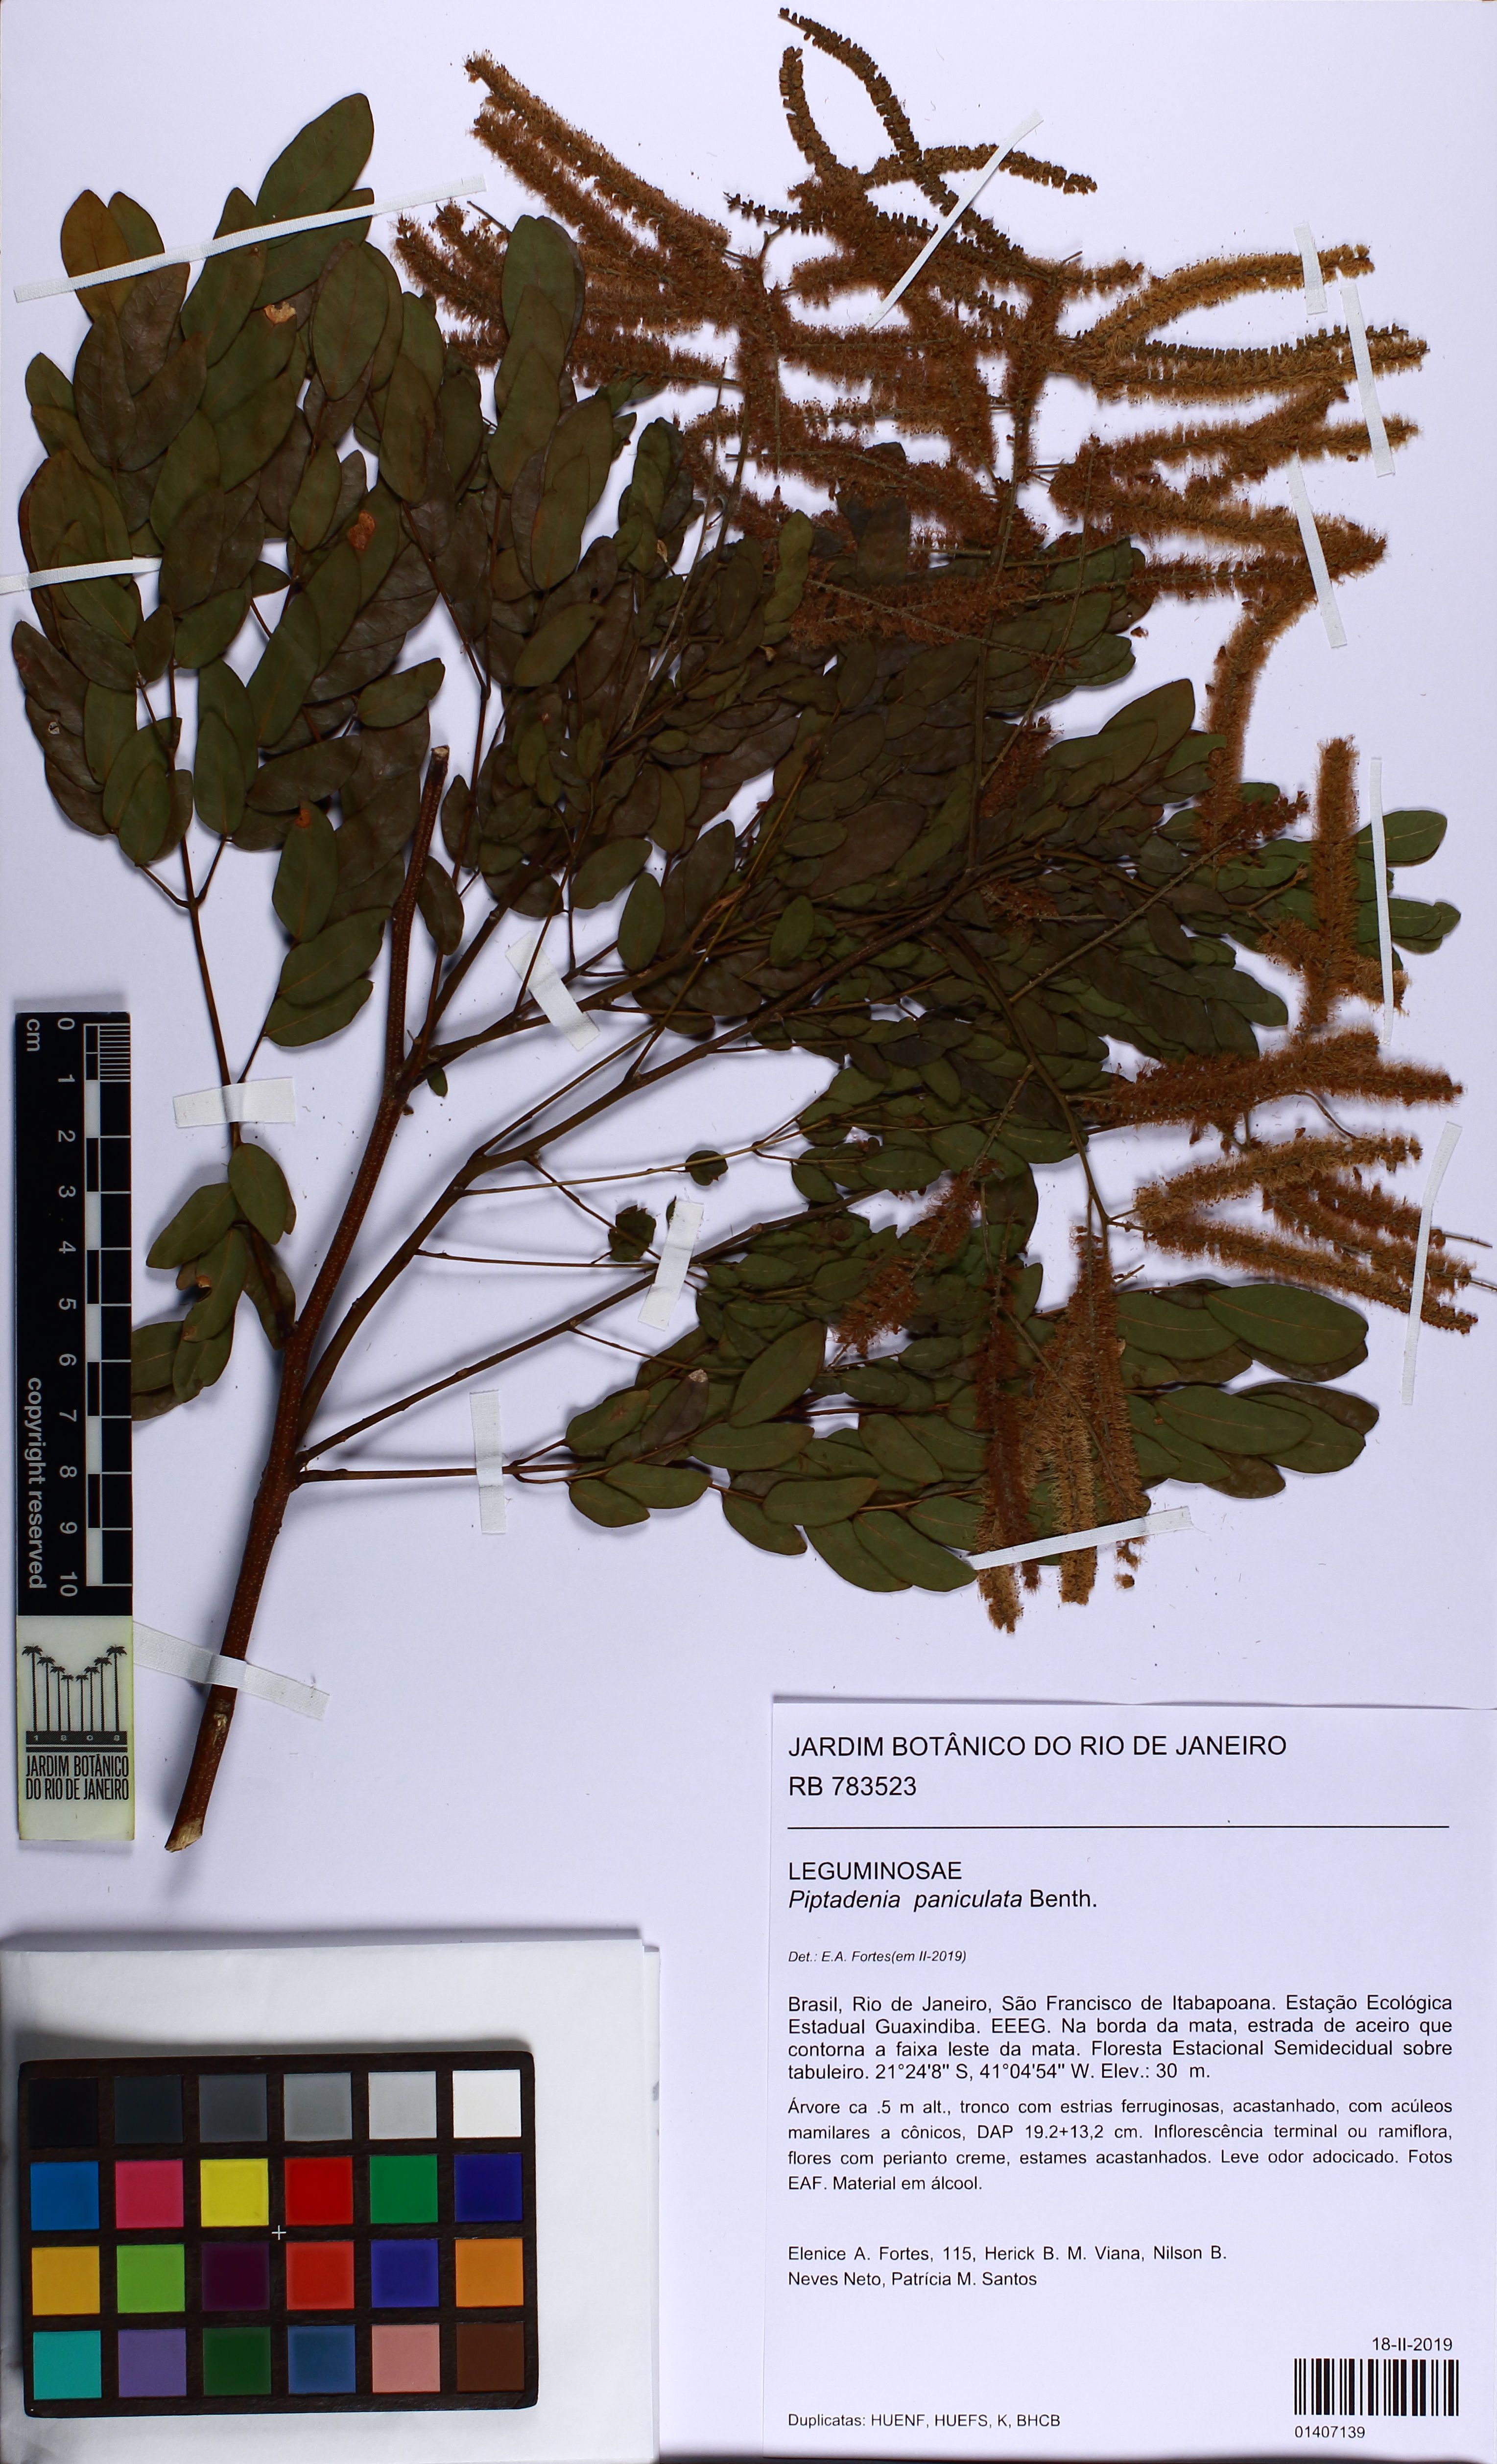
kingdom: Plantae
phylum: Tracheophyta
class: Magnoliopsida
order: Fabales
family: Fabaceae
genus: Piptadenia
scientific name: Piptadenia paniculata
